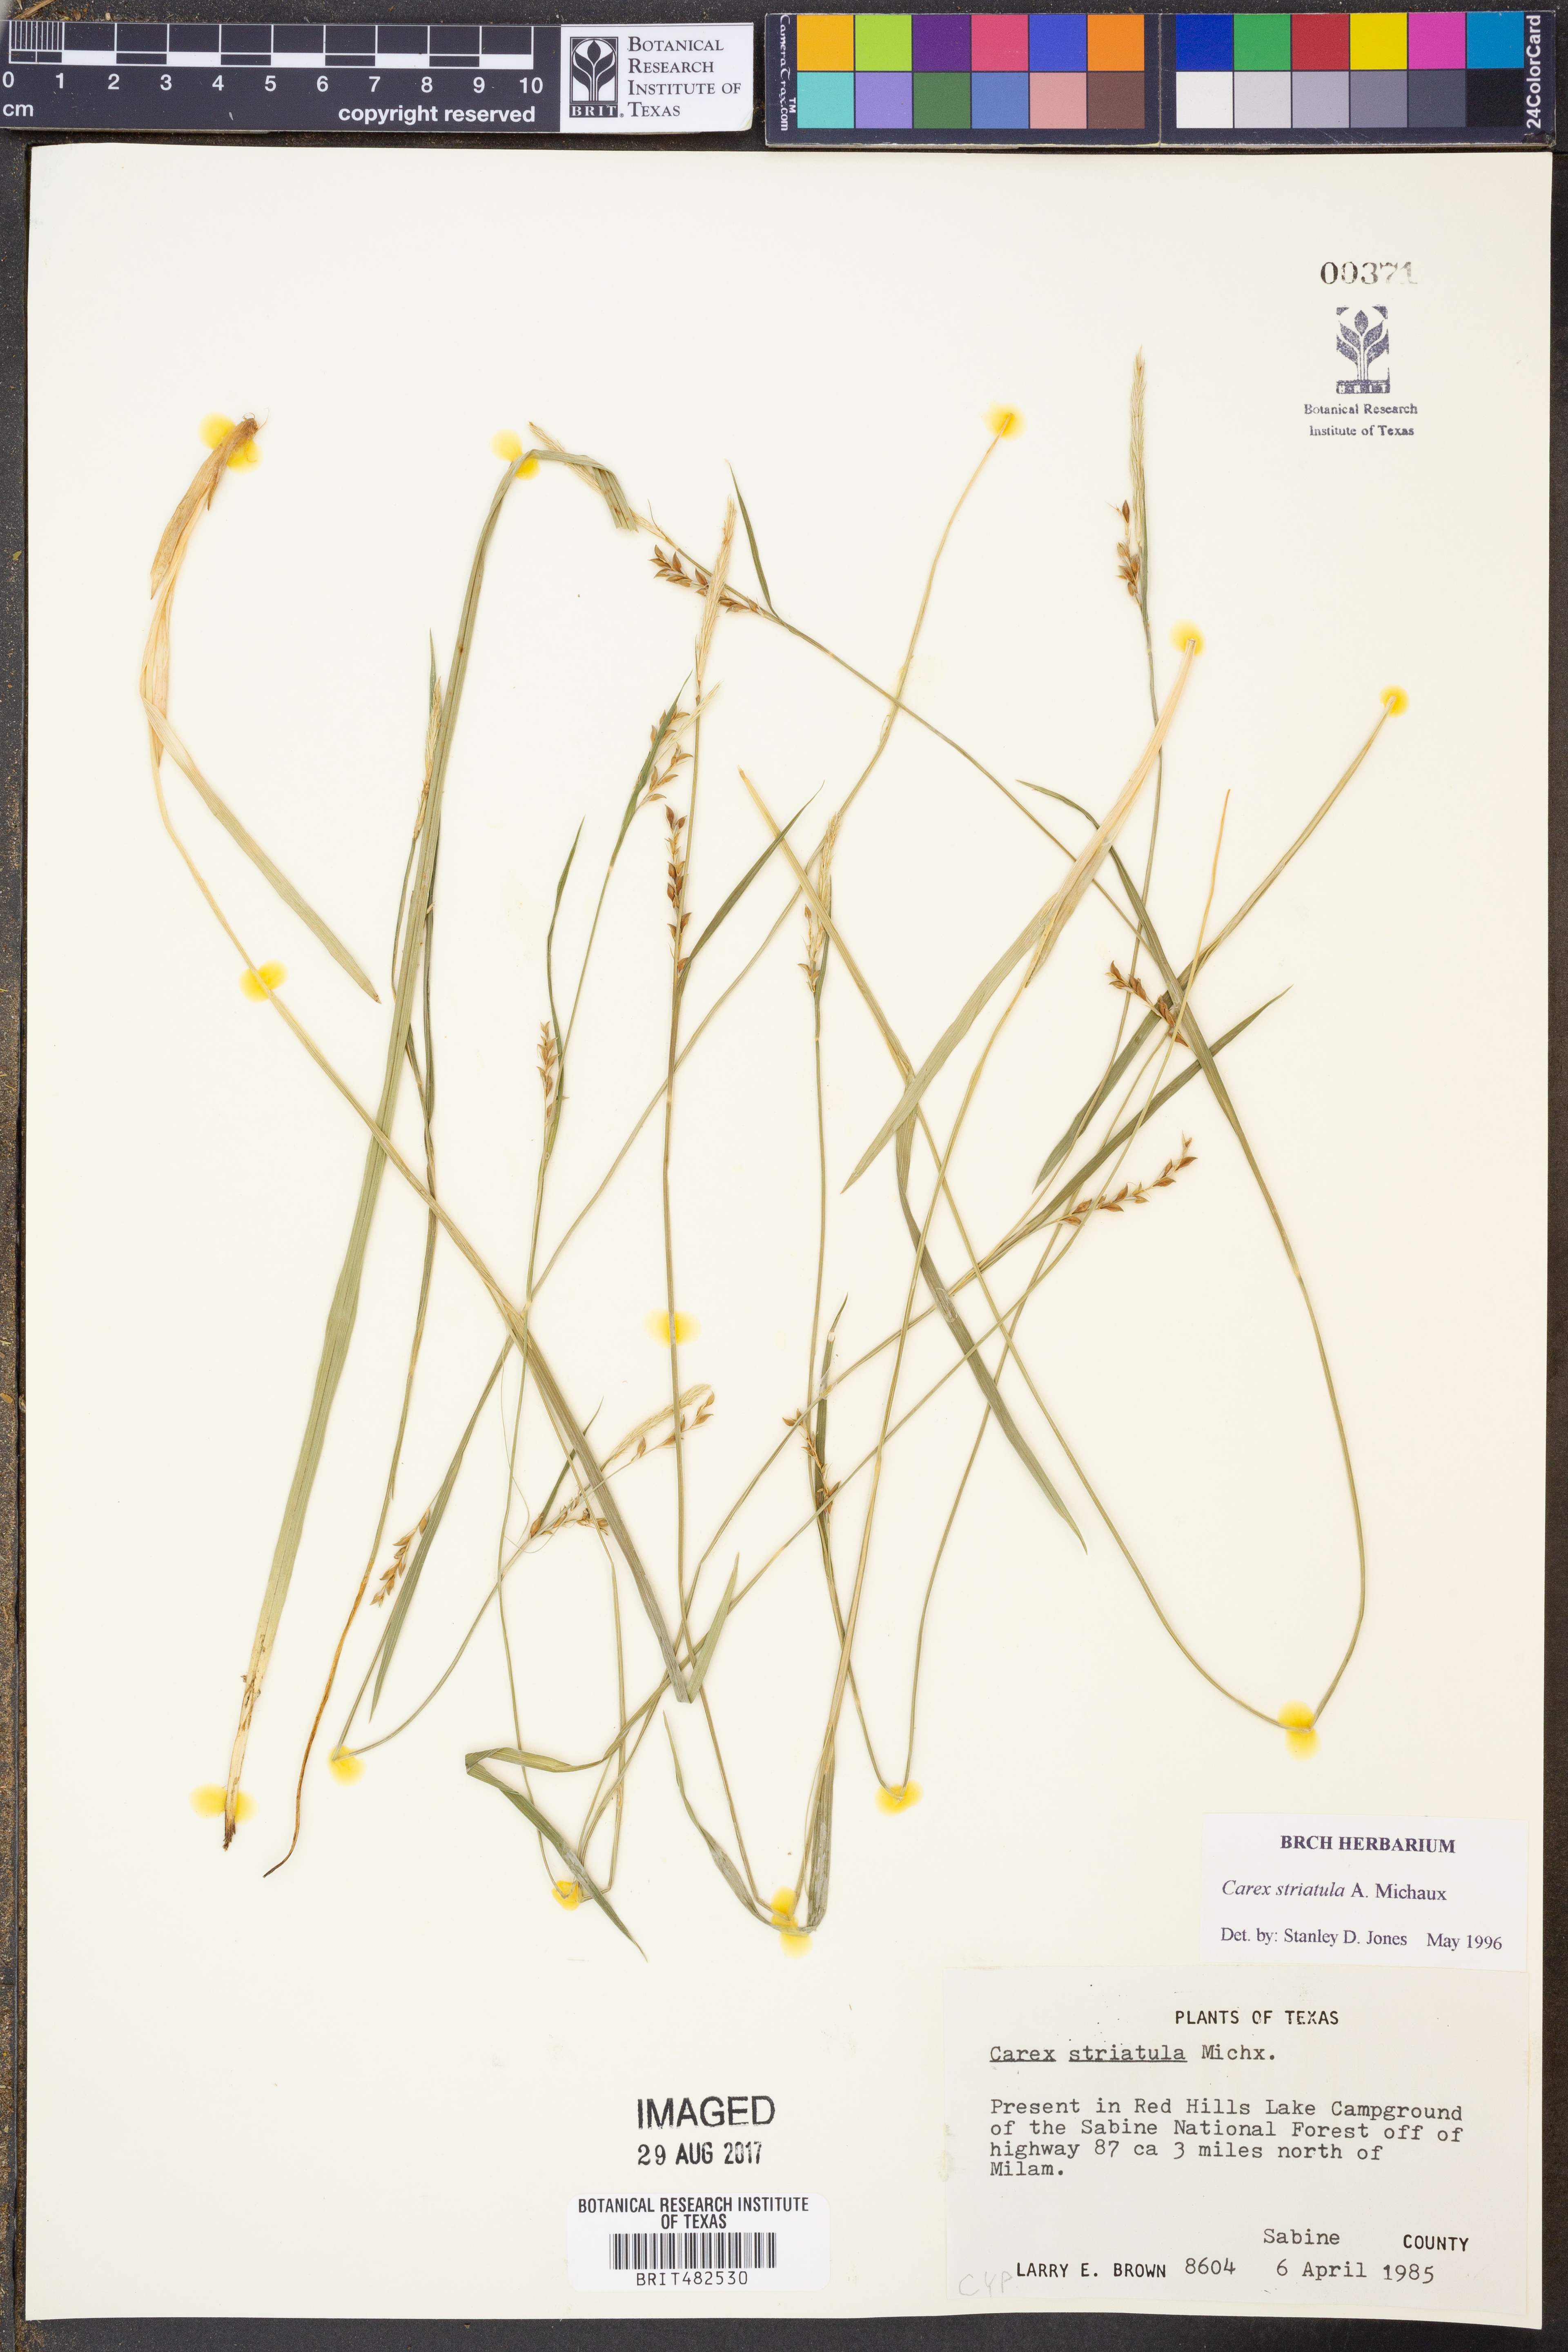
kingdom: Plantae
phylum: Tracheophyta
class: Liliopsida
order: Poales
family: Cyperaceae
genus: Carex
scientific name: Carex striatula
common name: Lined sedge
